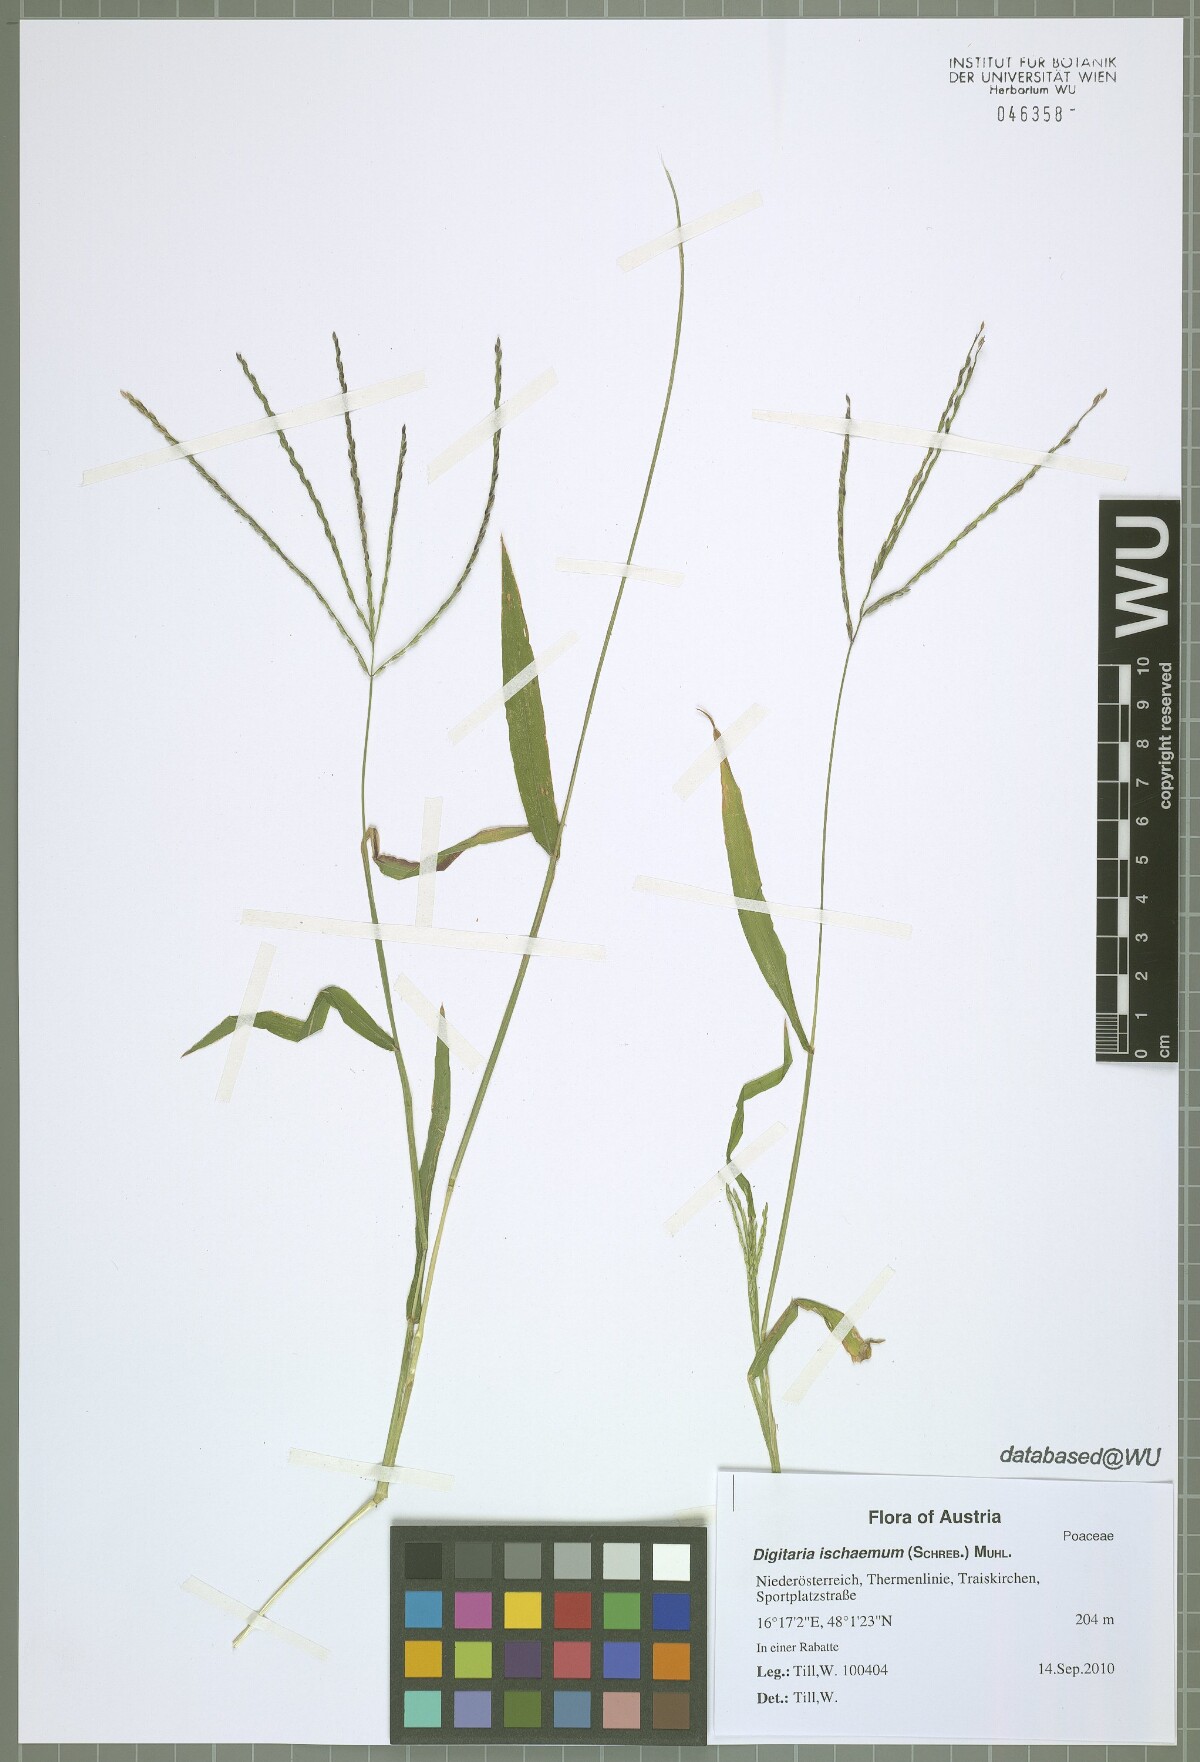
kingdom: Plantae
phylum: Tracheophyta
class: Liliopsida
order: Poales
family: Poaceae
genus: Digitaria
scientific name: Digitaria ischaemum
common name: Smooth crabgrass
